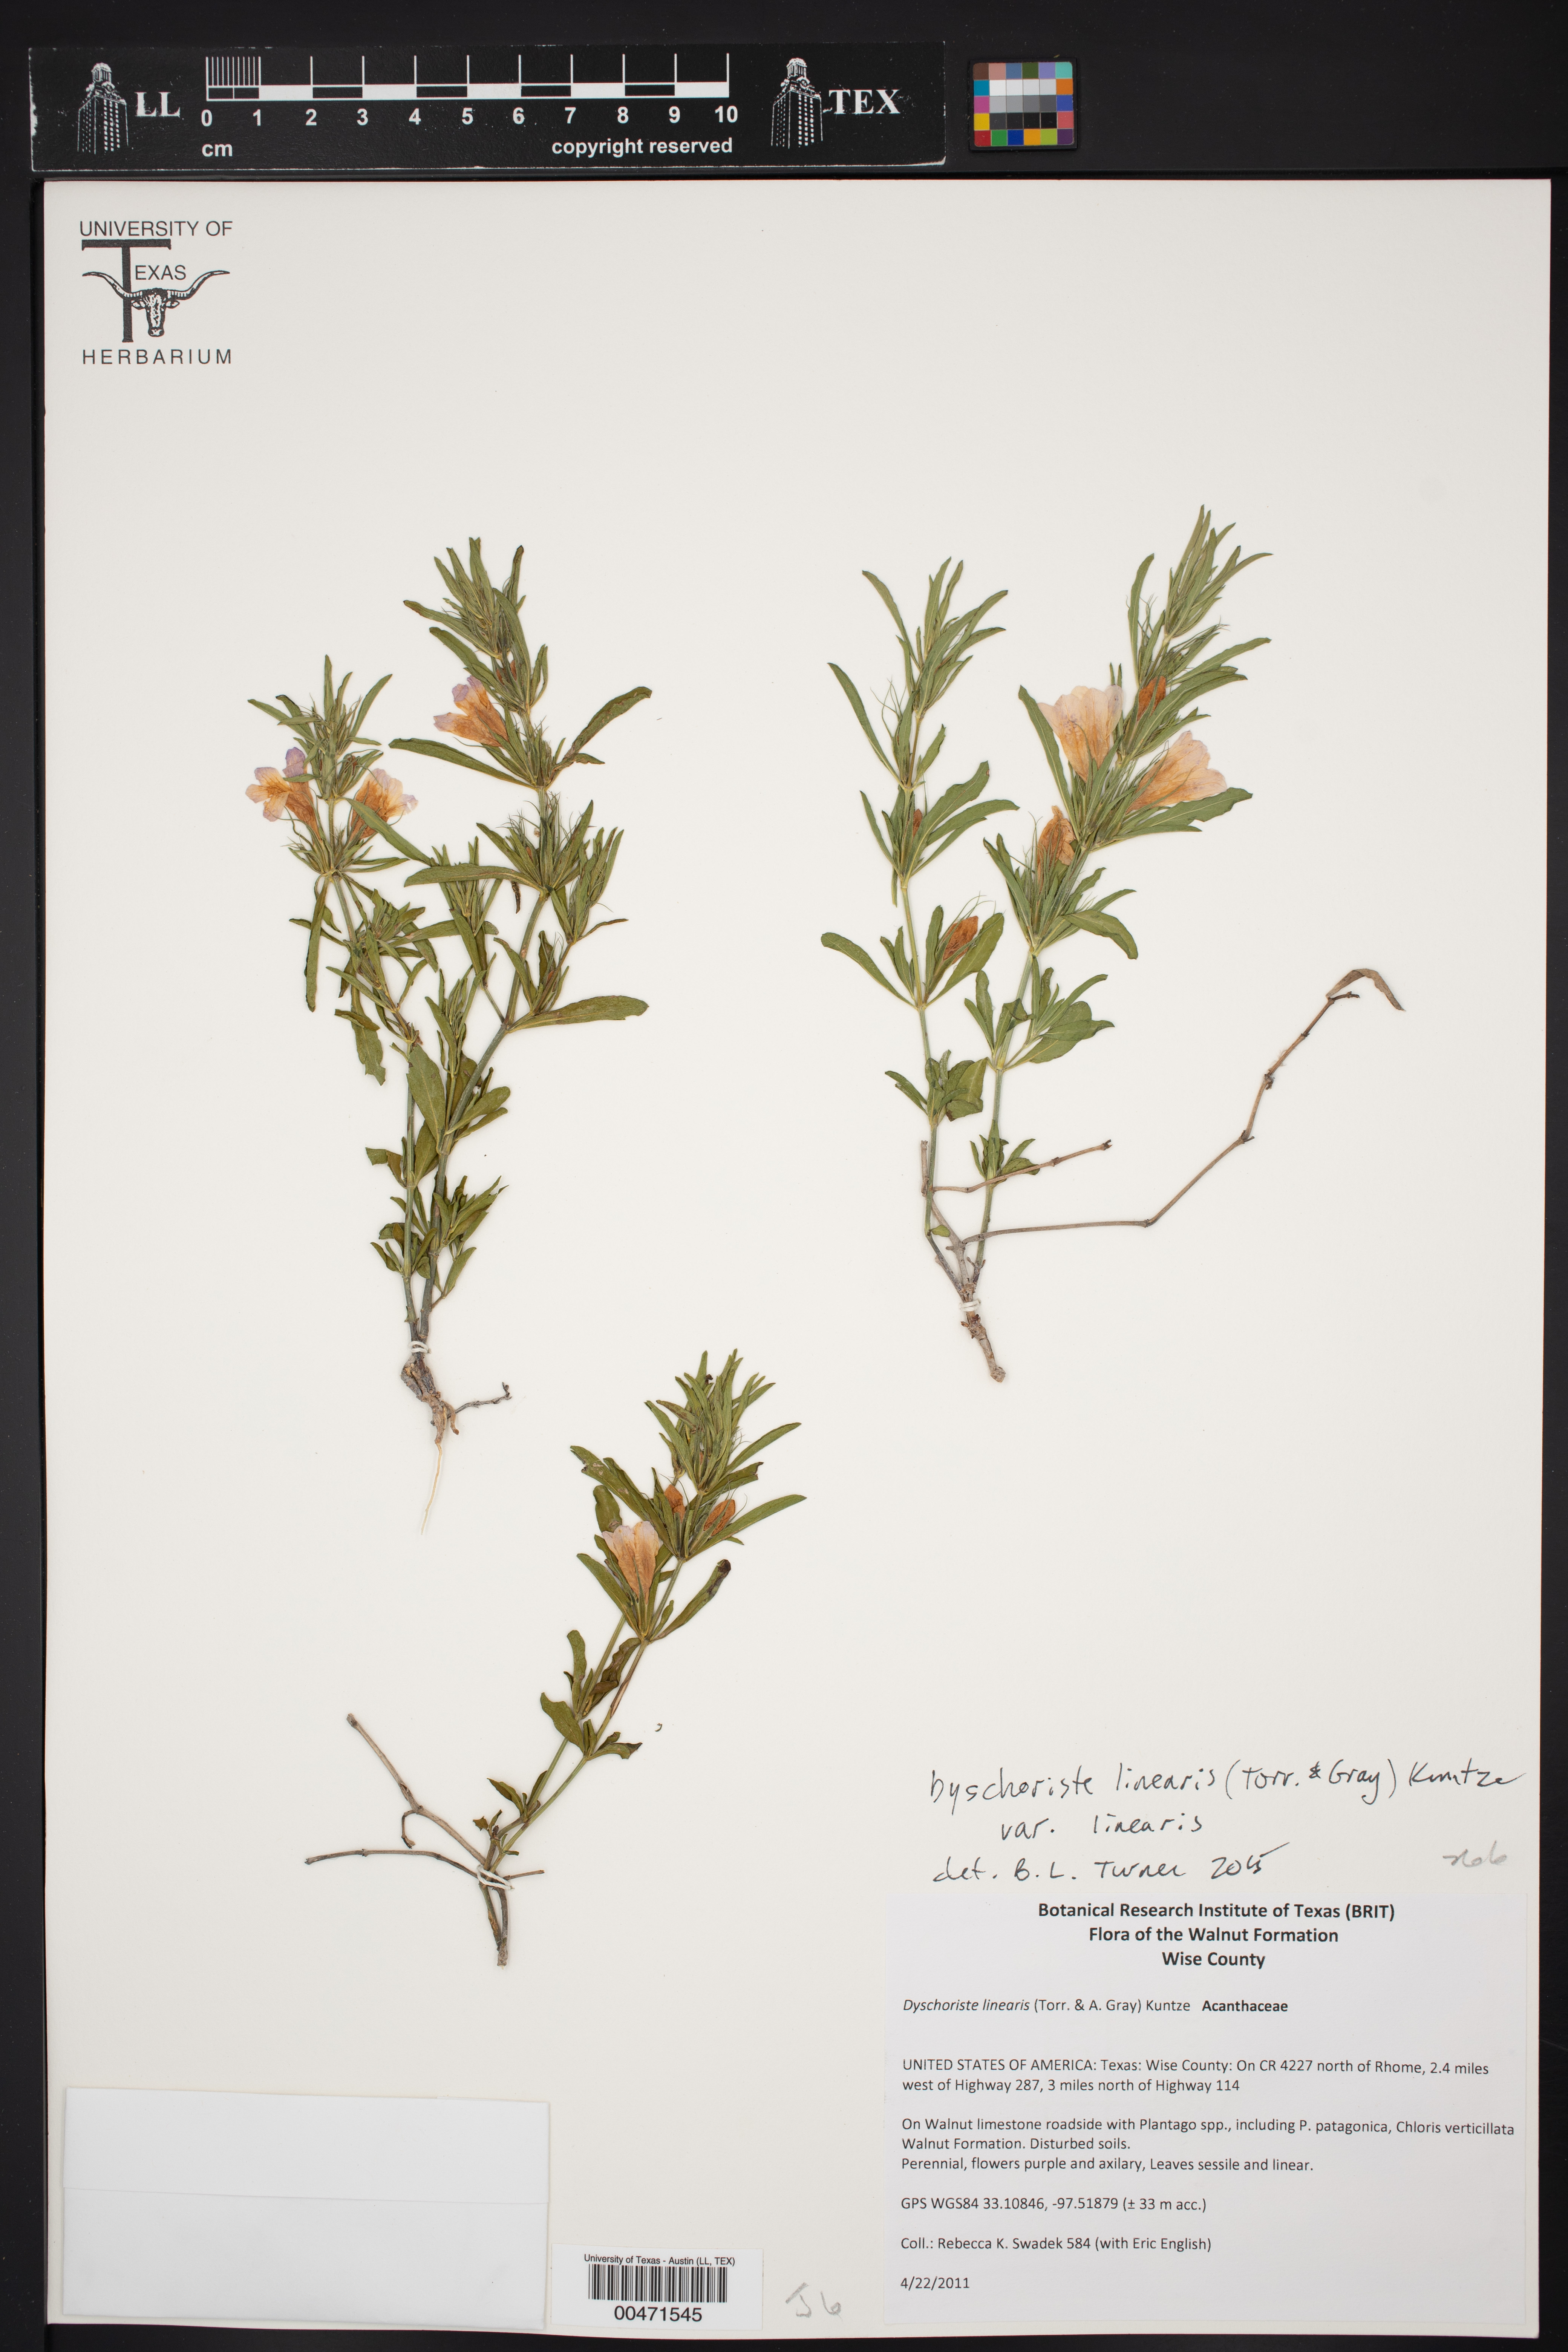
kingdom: Plantae
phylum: Tracheophyta
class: Magnoliopsida
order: Lamiales
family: Acanthaceae
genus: Dyschoriste
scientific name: Dyschoriste linearis
